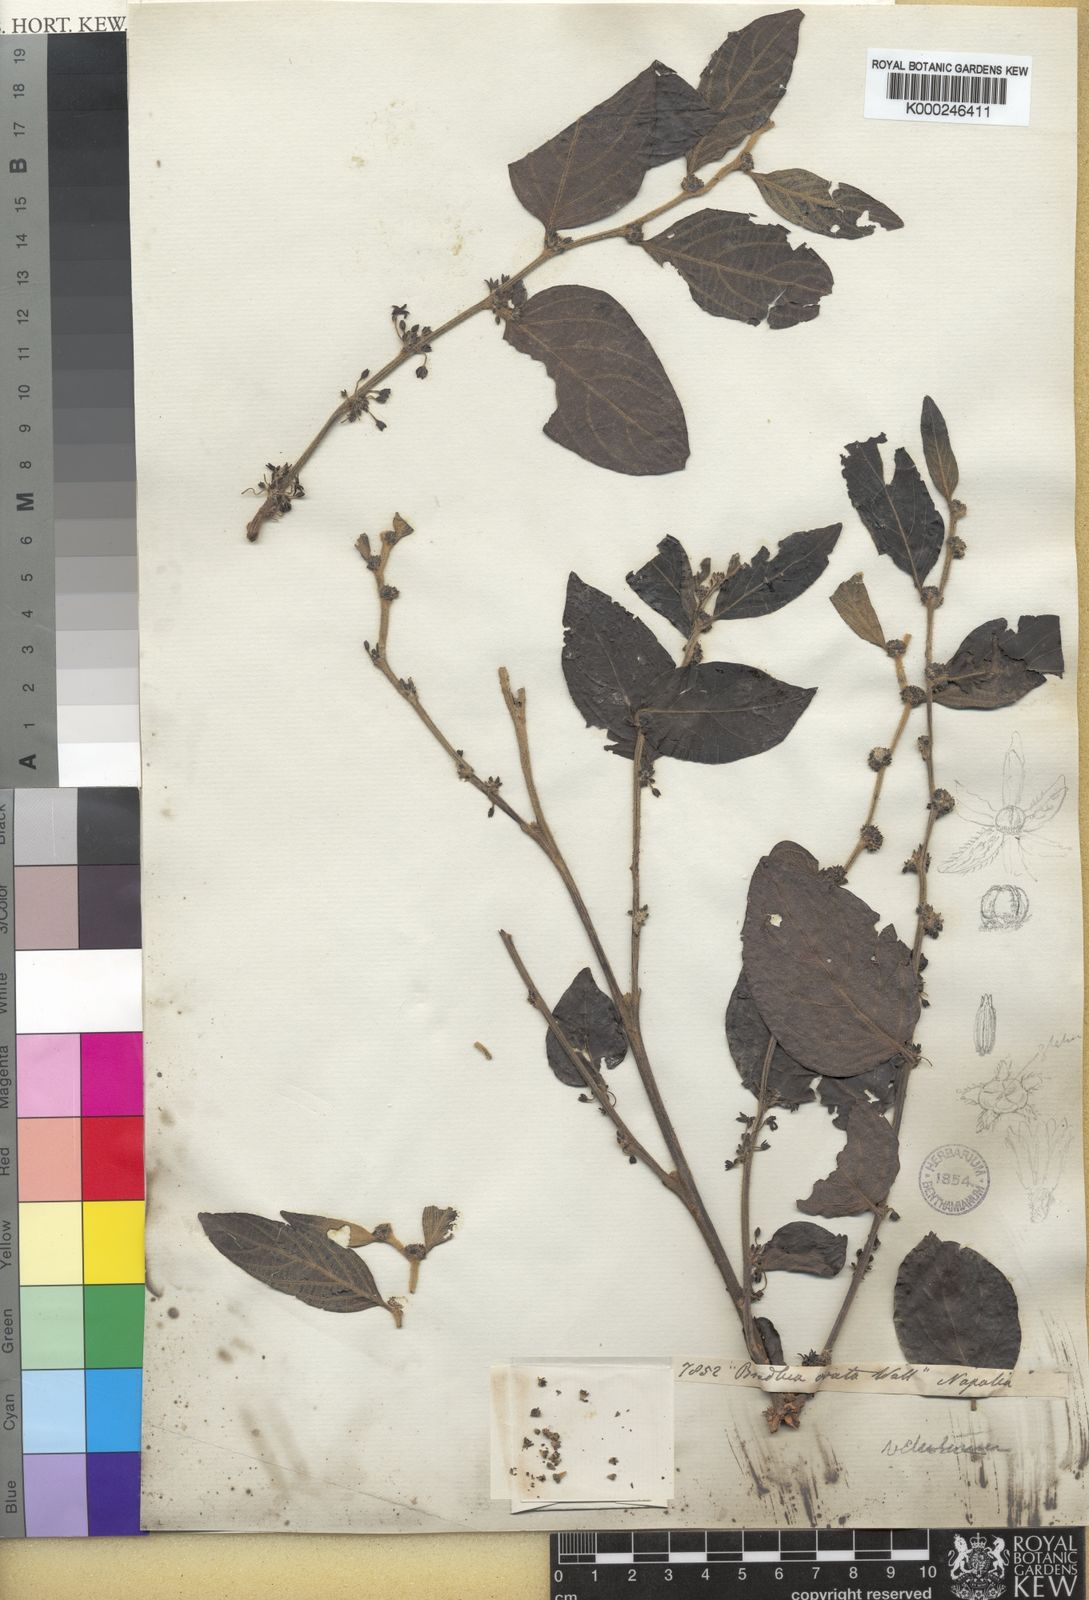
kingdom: Plantae
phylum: Tracheophyta
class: Magnoliopsida
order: Malpighiales
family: Phyllanthaceae
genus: Glochidion
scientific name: Glochidion heyneanum
